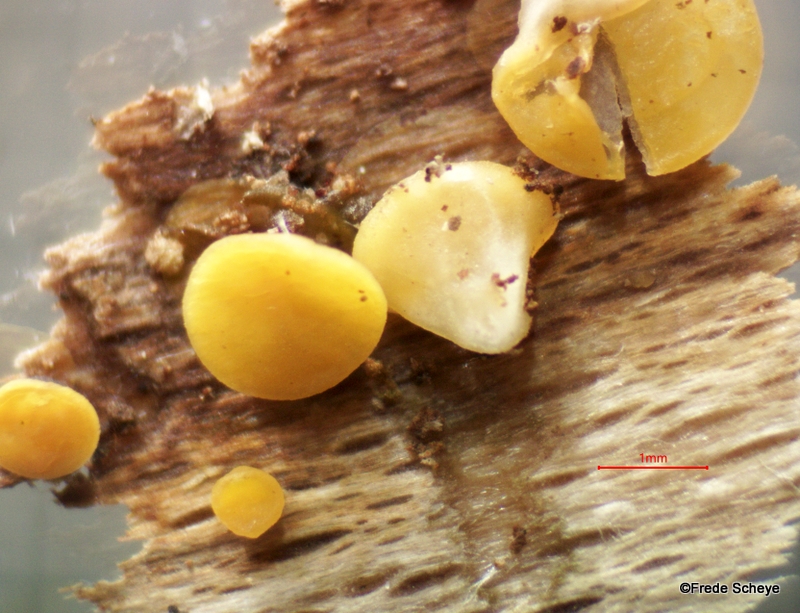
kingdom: Fungi
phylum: Ascomycota
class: Leotiomycetes
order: Helotiales
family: Pezizellaceae
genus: Calycina
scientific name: Calycina citrina
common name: almindelig gulskive
